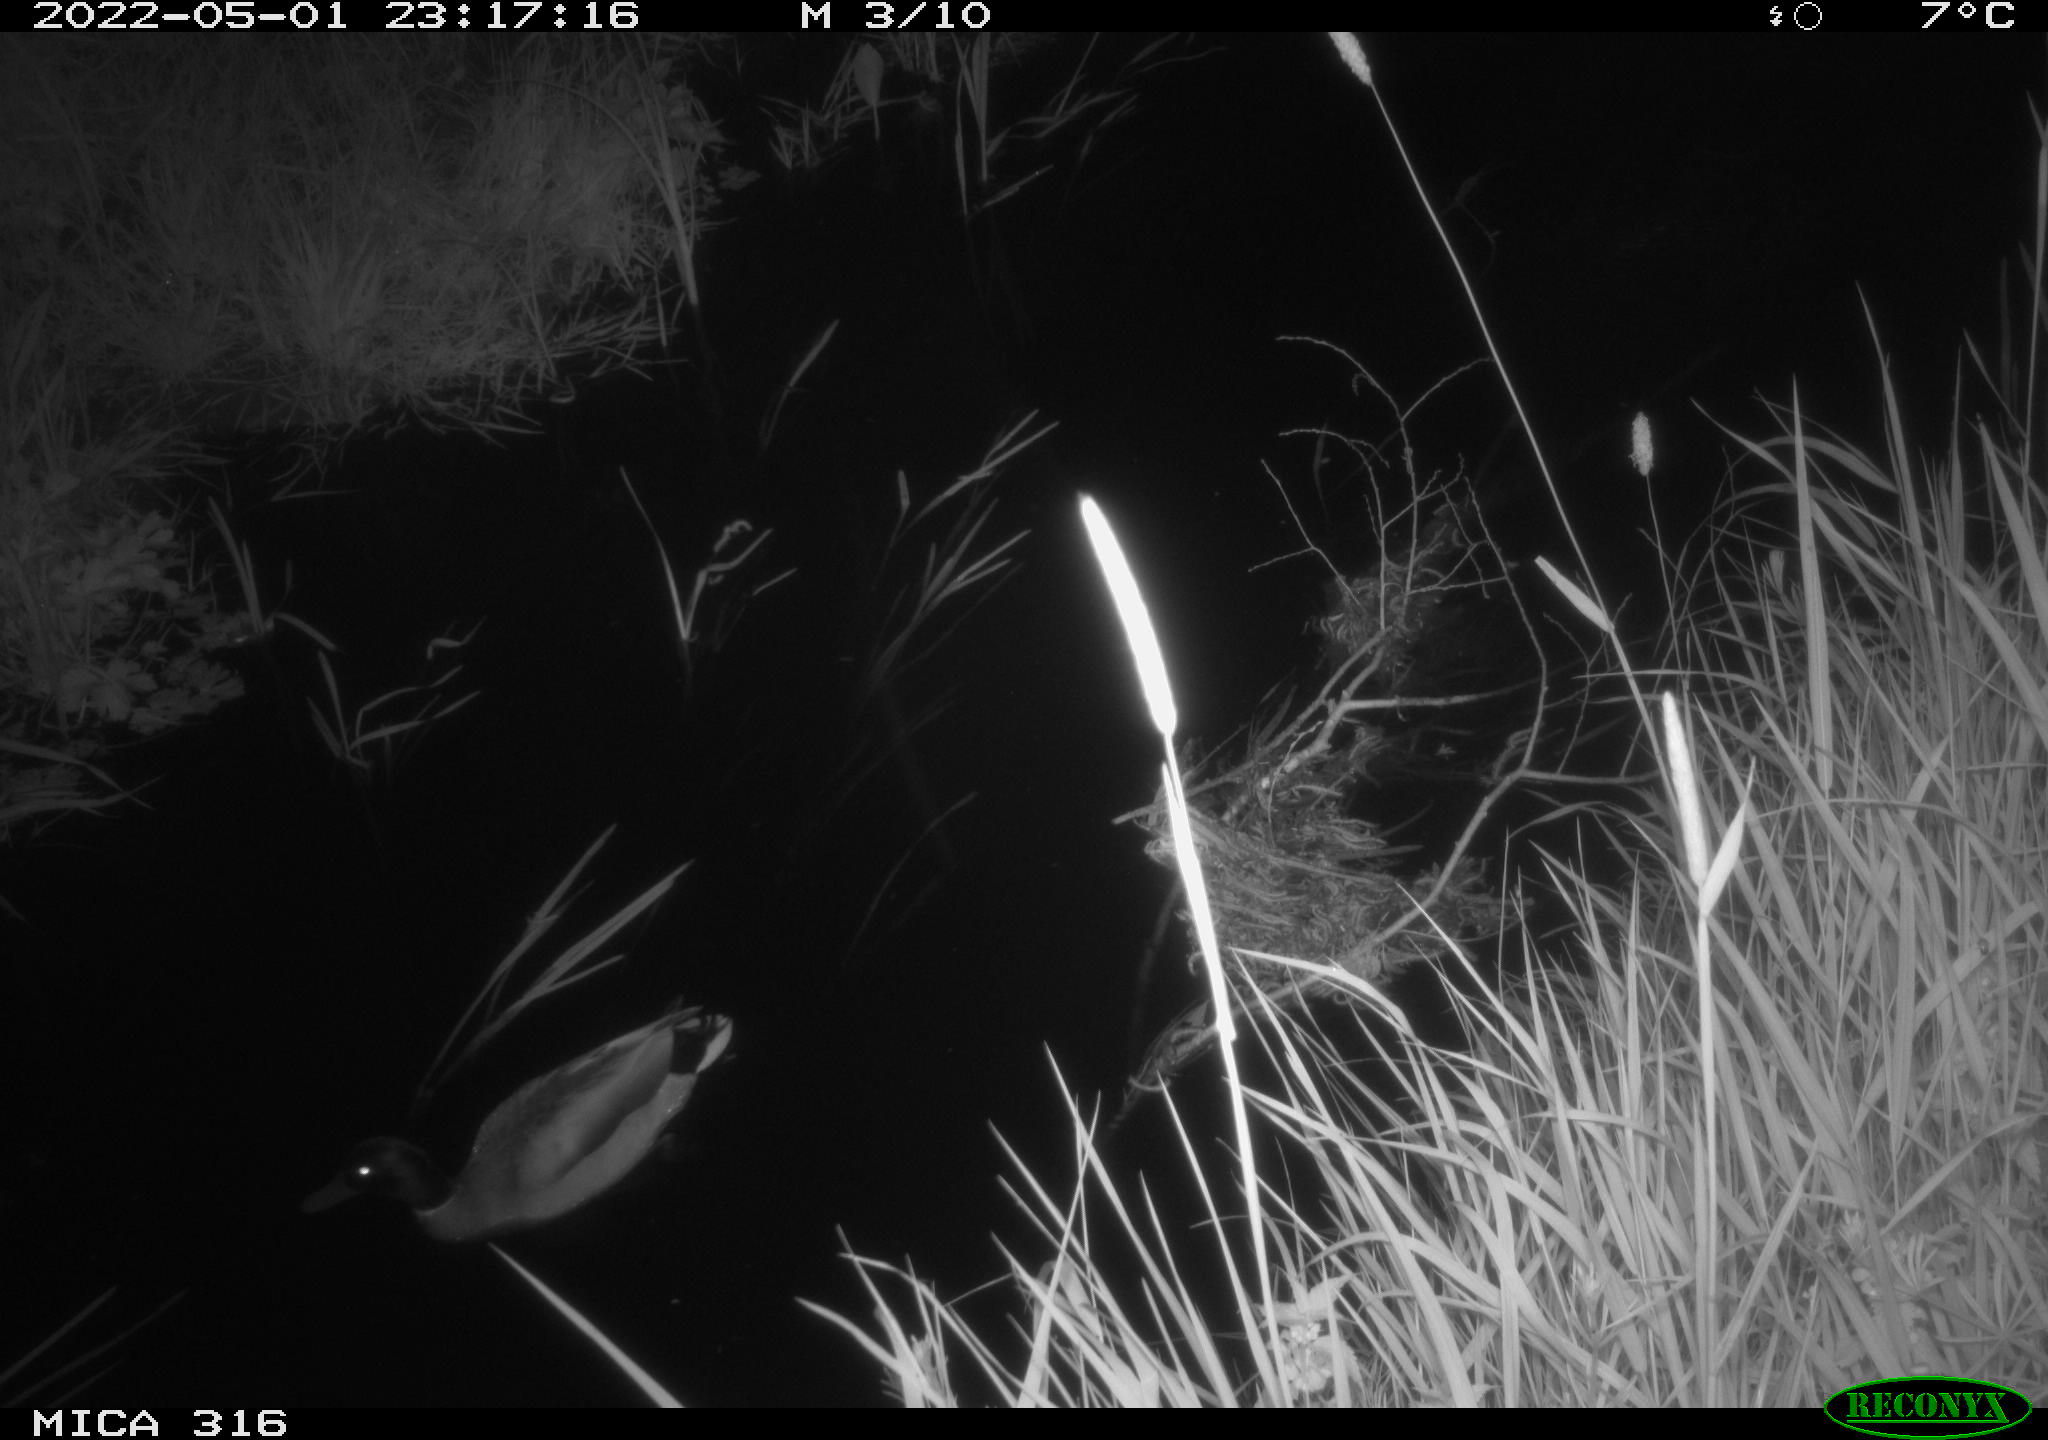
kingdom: Animalia
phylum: Chordata
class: Aves
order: Anseriformes
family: Anatidae
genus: Anas
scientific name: Anas platyrhynchos
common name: Mallard
